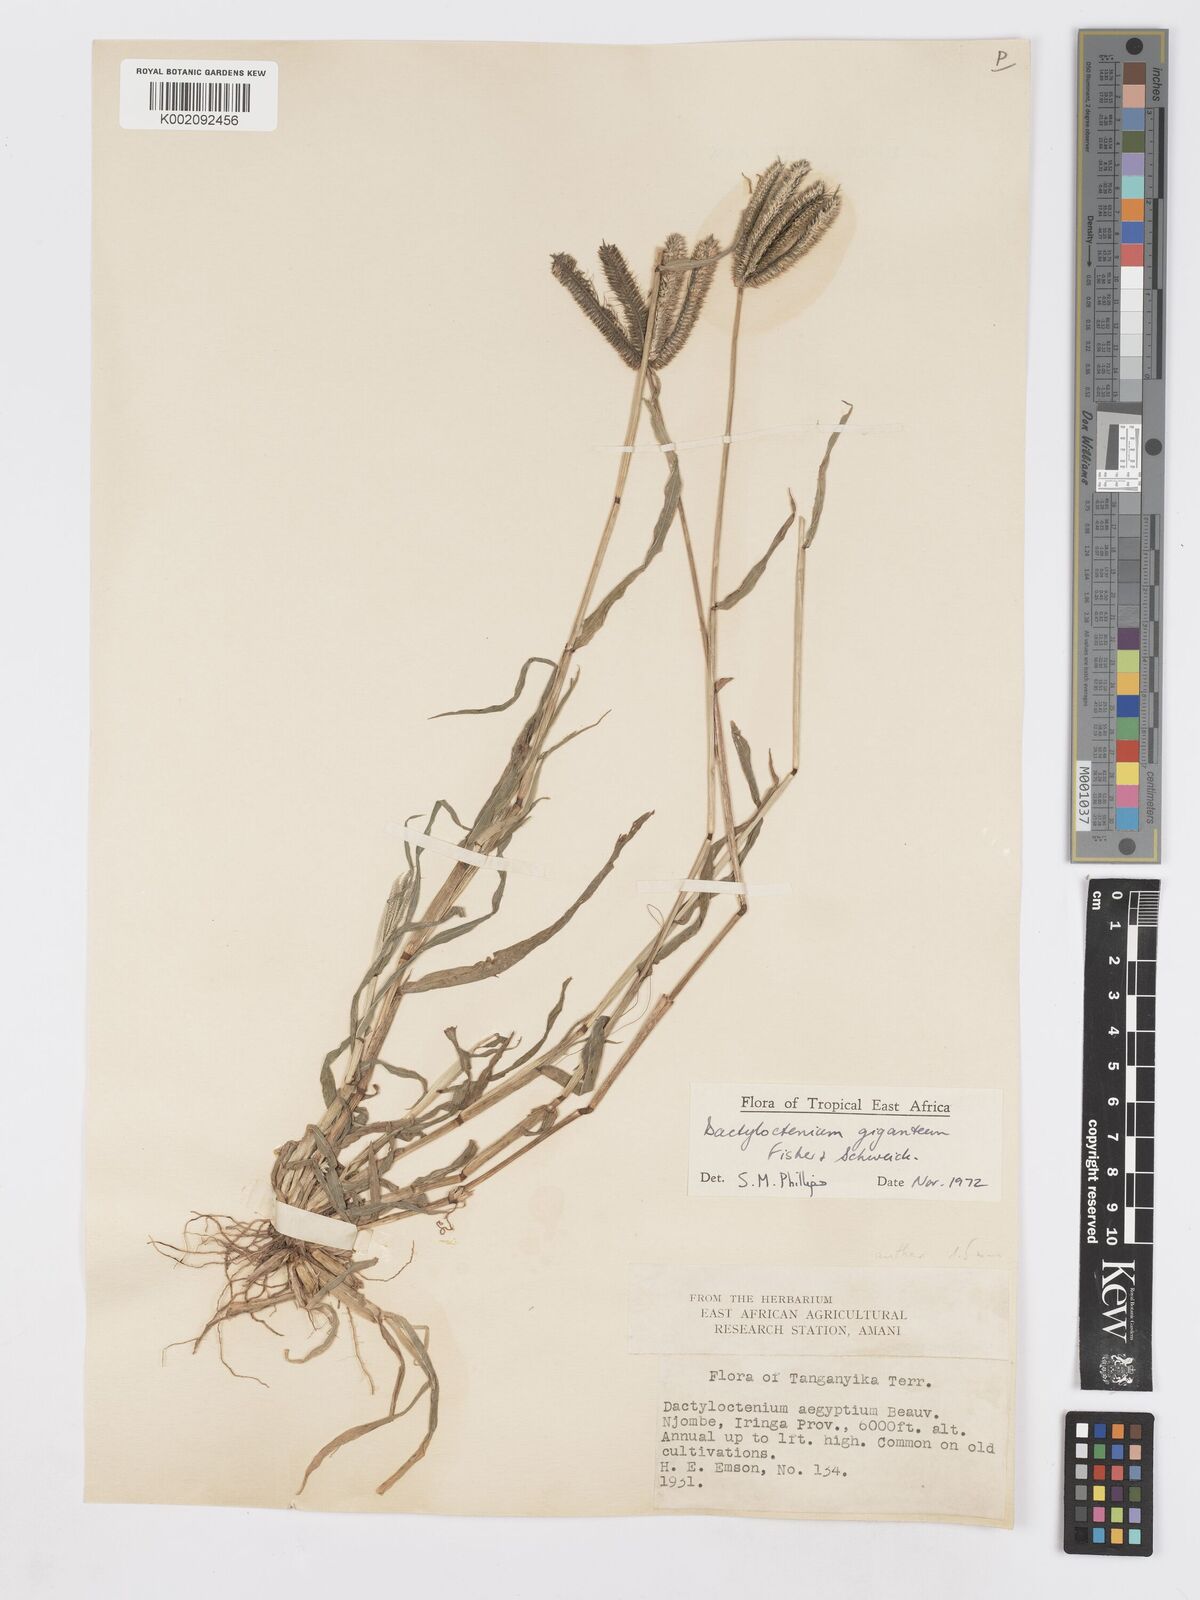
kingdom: Plantae
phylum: Tracheophyta
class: Liliopsida
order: Poales
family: Poaceae
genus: Dactyloctenium
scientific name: Dactyloctenium giganteum
